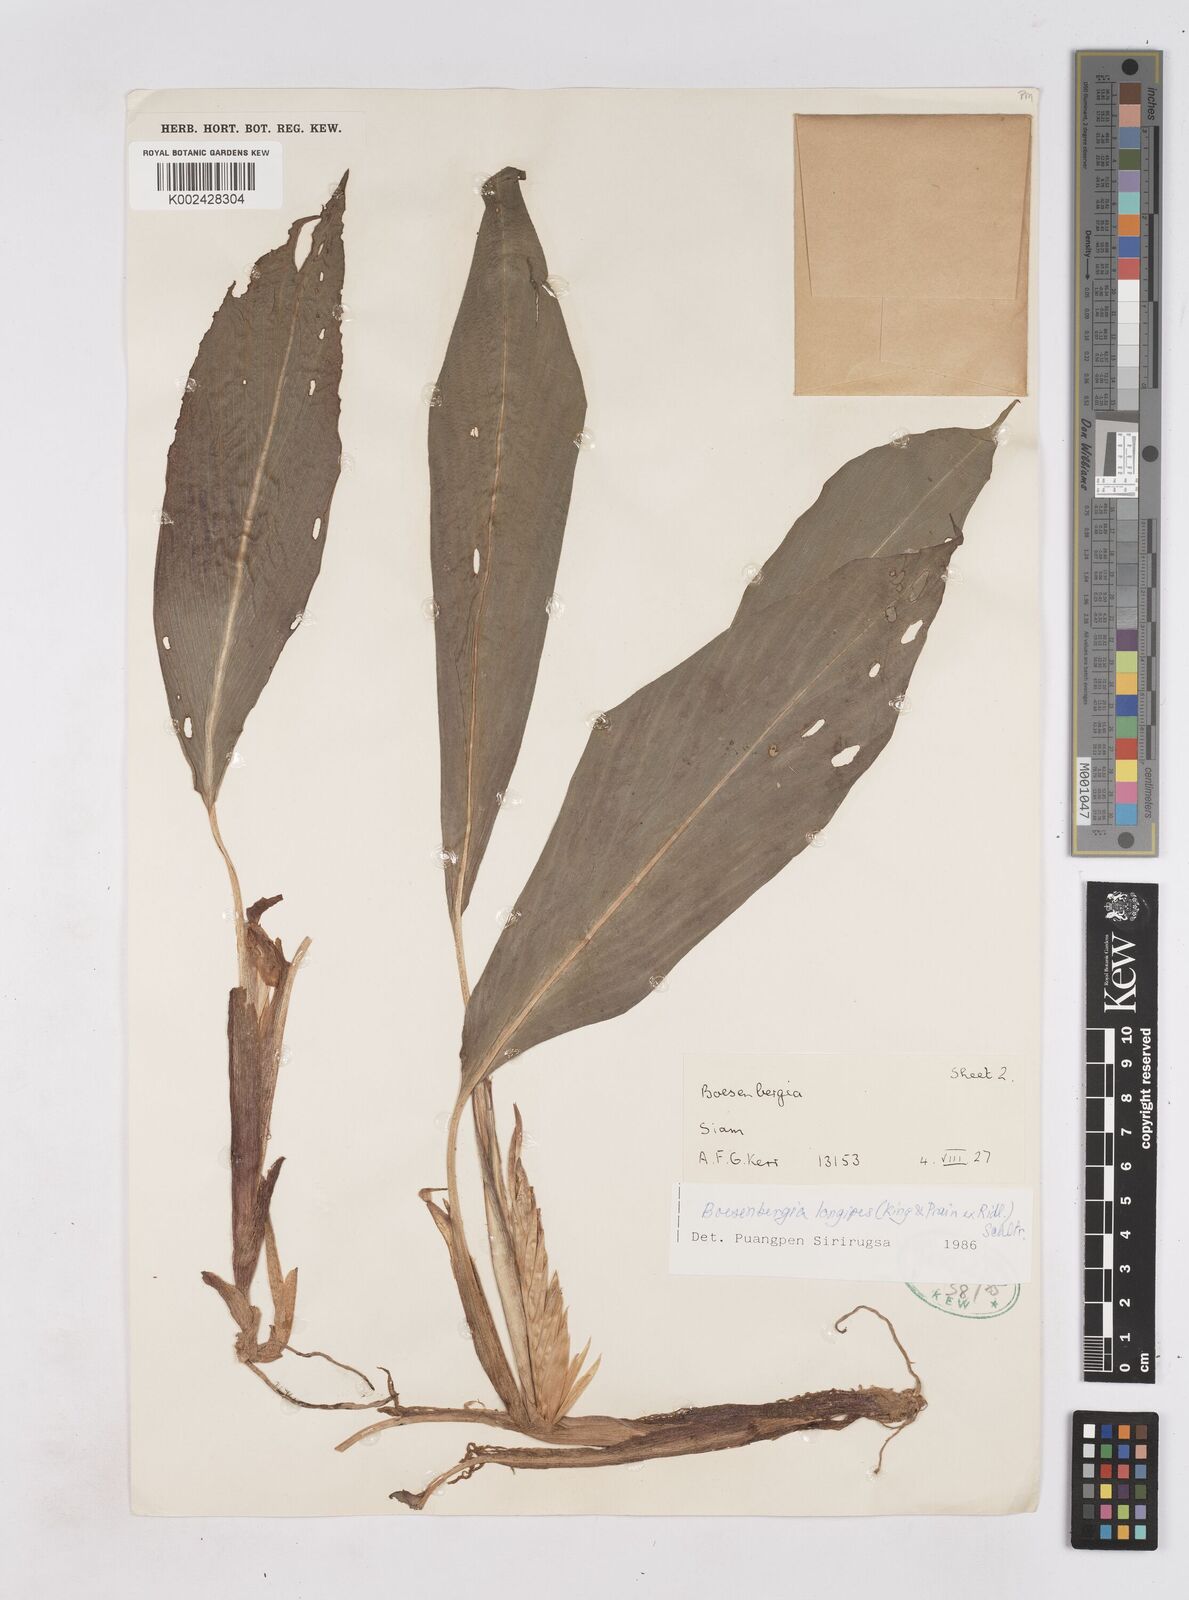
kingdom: Plantae
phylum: Tracheophyta
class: Liliopsida
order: Zingiberales
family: Zingiberaceae
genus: Boesenbergia
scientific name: Boesenbergia longipes
